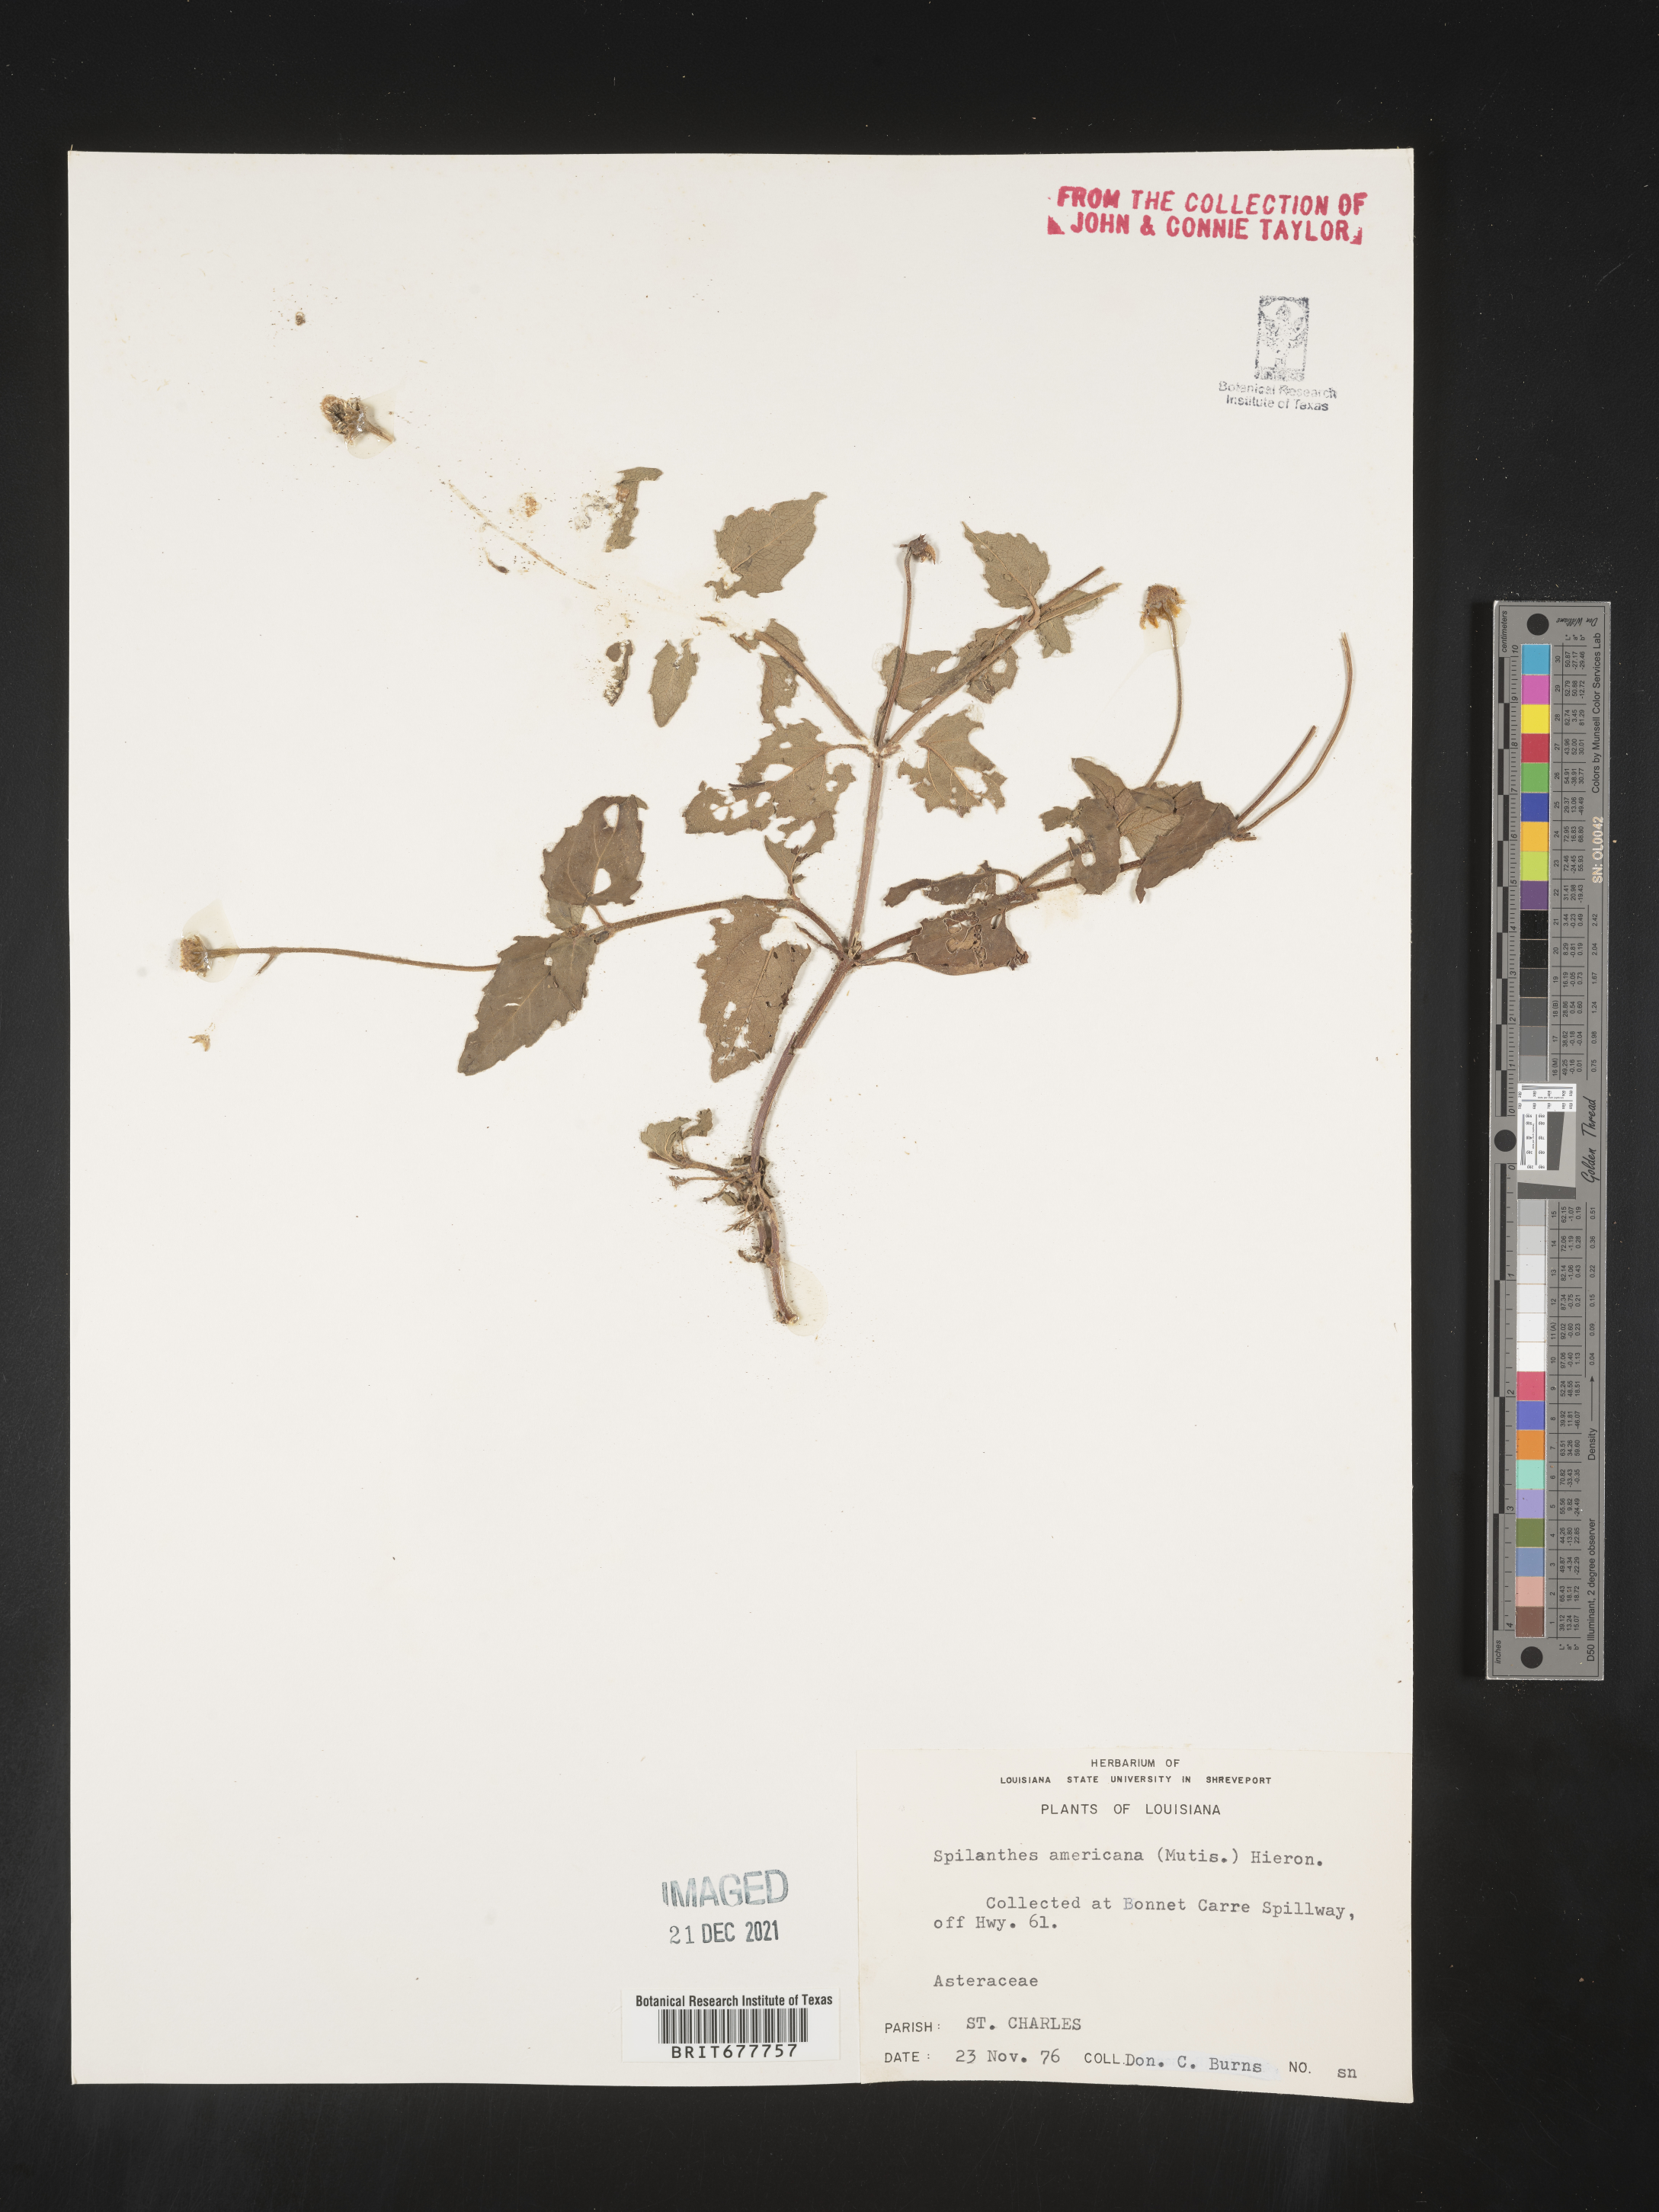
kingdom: Plantae
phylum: Tracheophyta
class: Magnoliopsida
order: Asterales
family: Asteraceae
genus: Spilanthes
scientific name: Spilanthes
